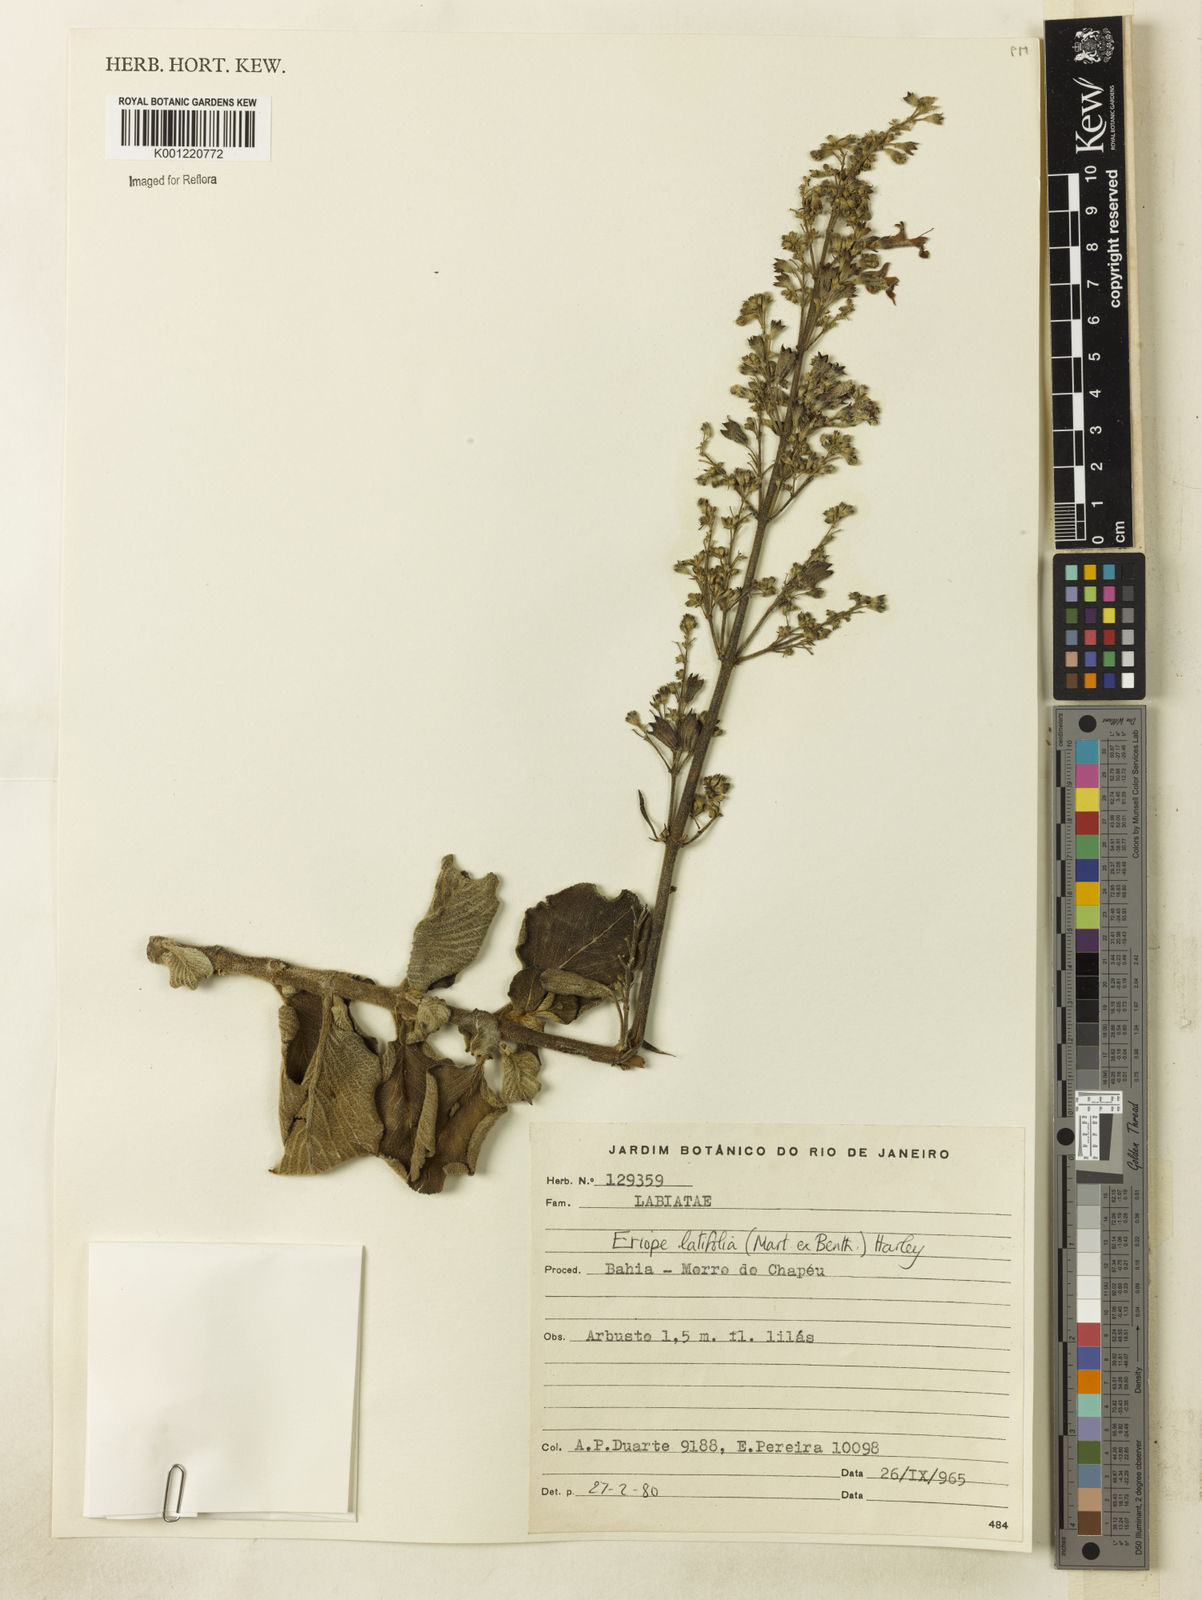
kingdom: Plantae
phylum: Tracheophyta
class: Magnoliopsida
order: Lamiales
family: Lamiaceae
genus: Eriope
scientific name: Eriope latifolia
